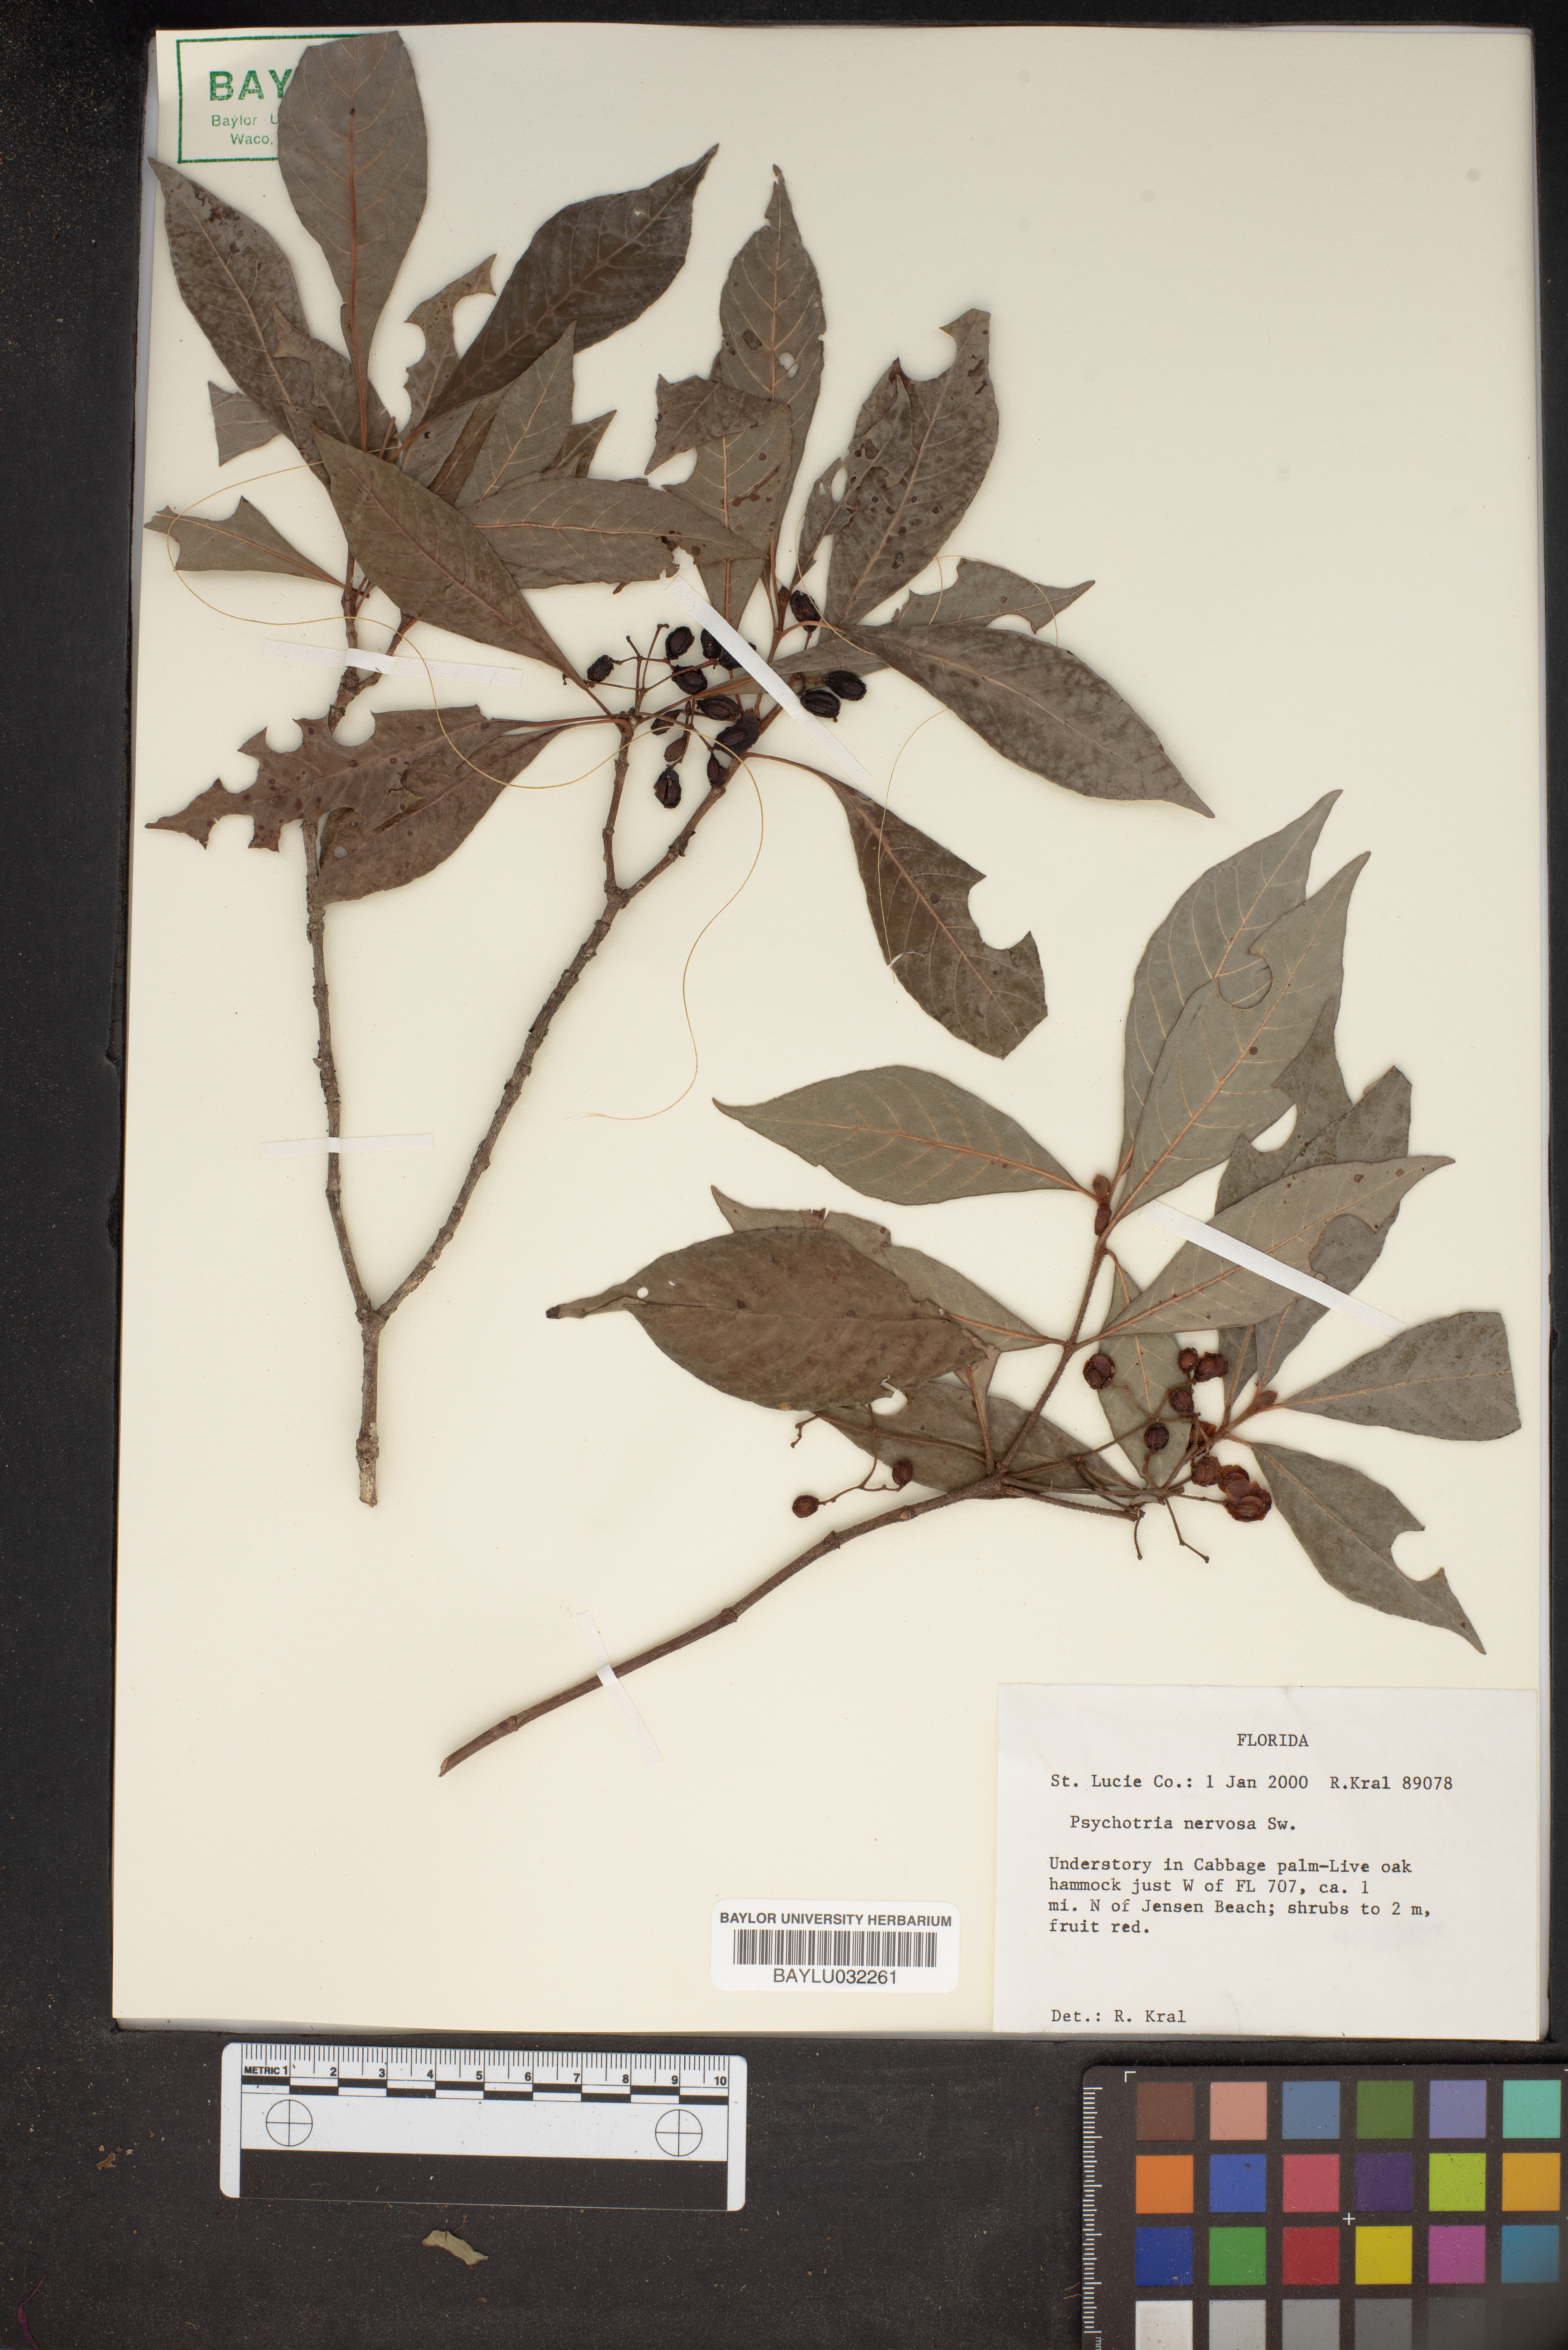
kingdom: Plantae
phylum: Tracheophyta
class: Magnoliopsida
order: Gentianales
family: Rubiaceae
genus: Psychotria
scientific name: Psychotria nervosa
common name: Bastard cankerberry
